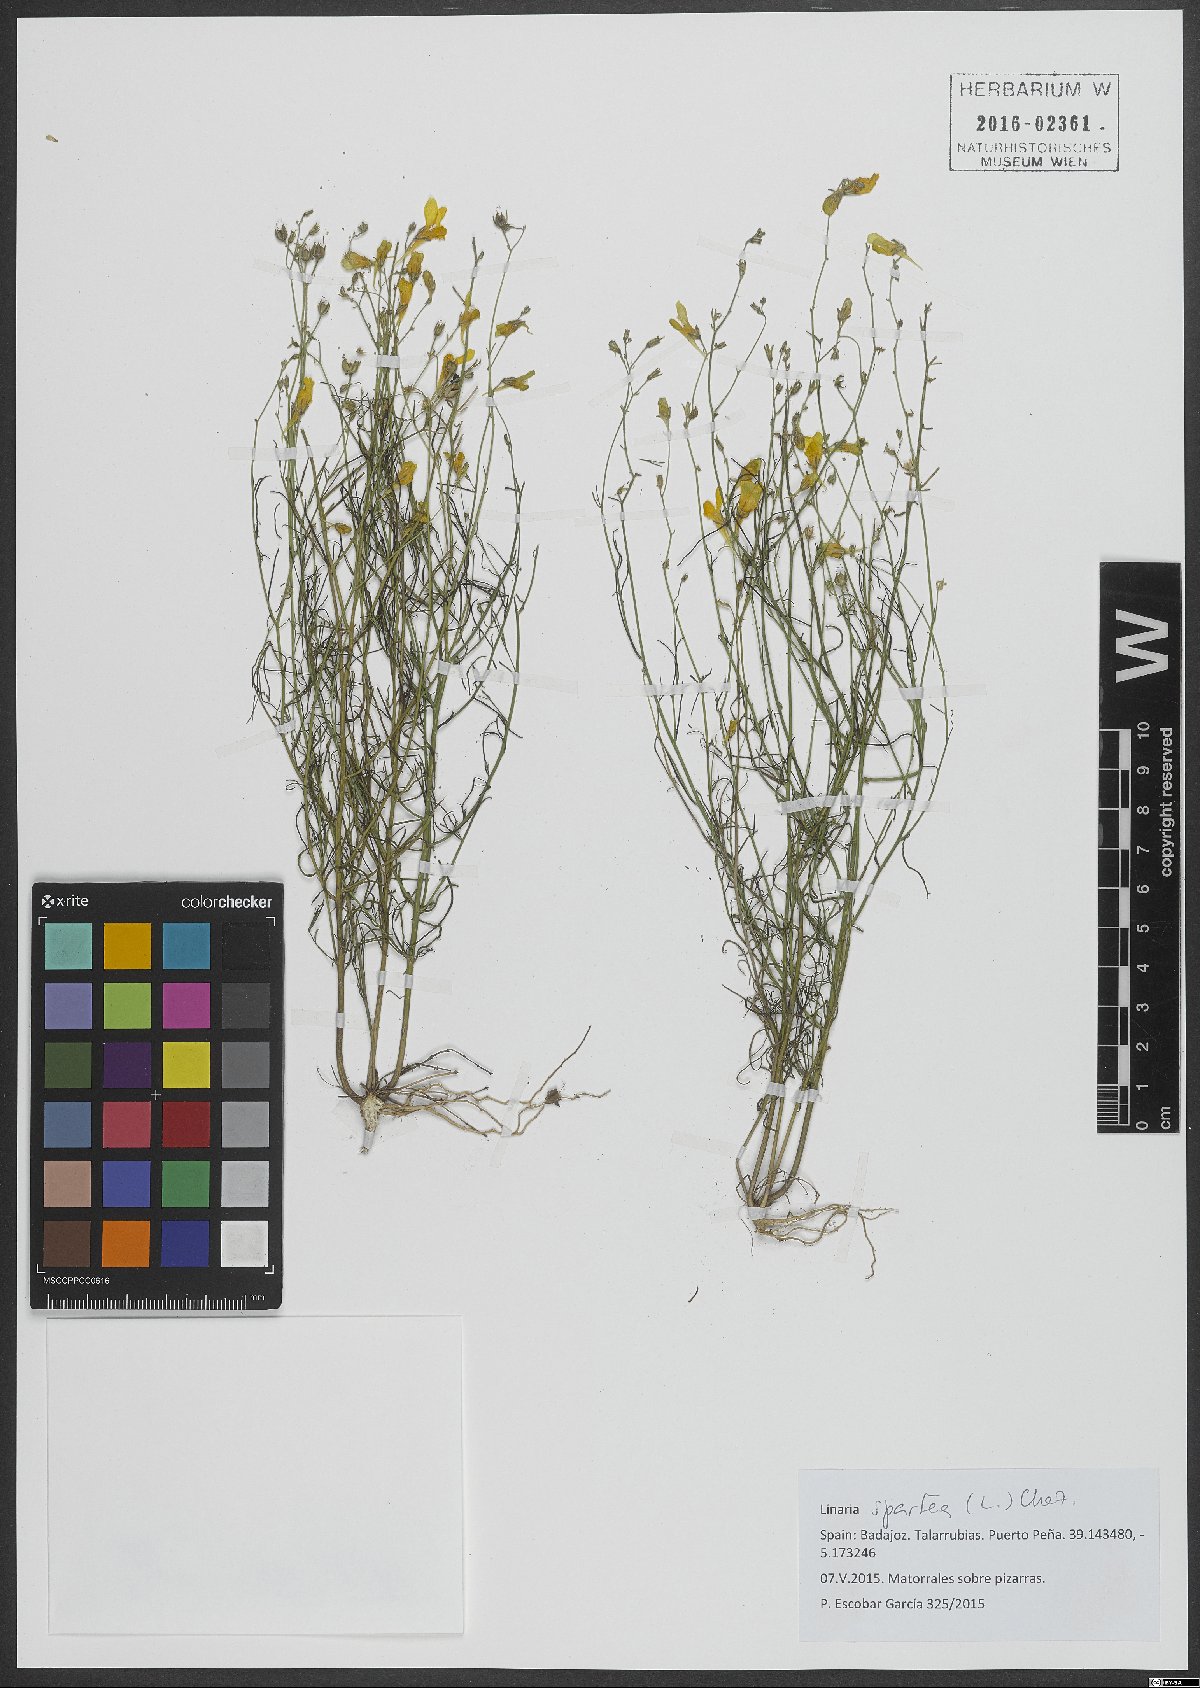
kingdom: Plantae
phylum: Tracheophyta
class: Magnoliopsida
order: Lamiales
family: Plantaginaceae
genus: Linaria
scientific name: Linaria spartea
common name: Ballast toadflax
